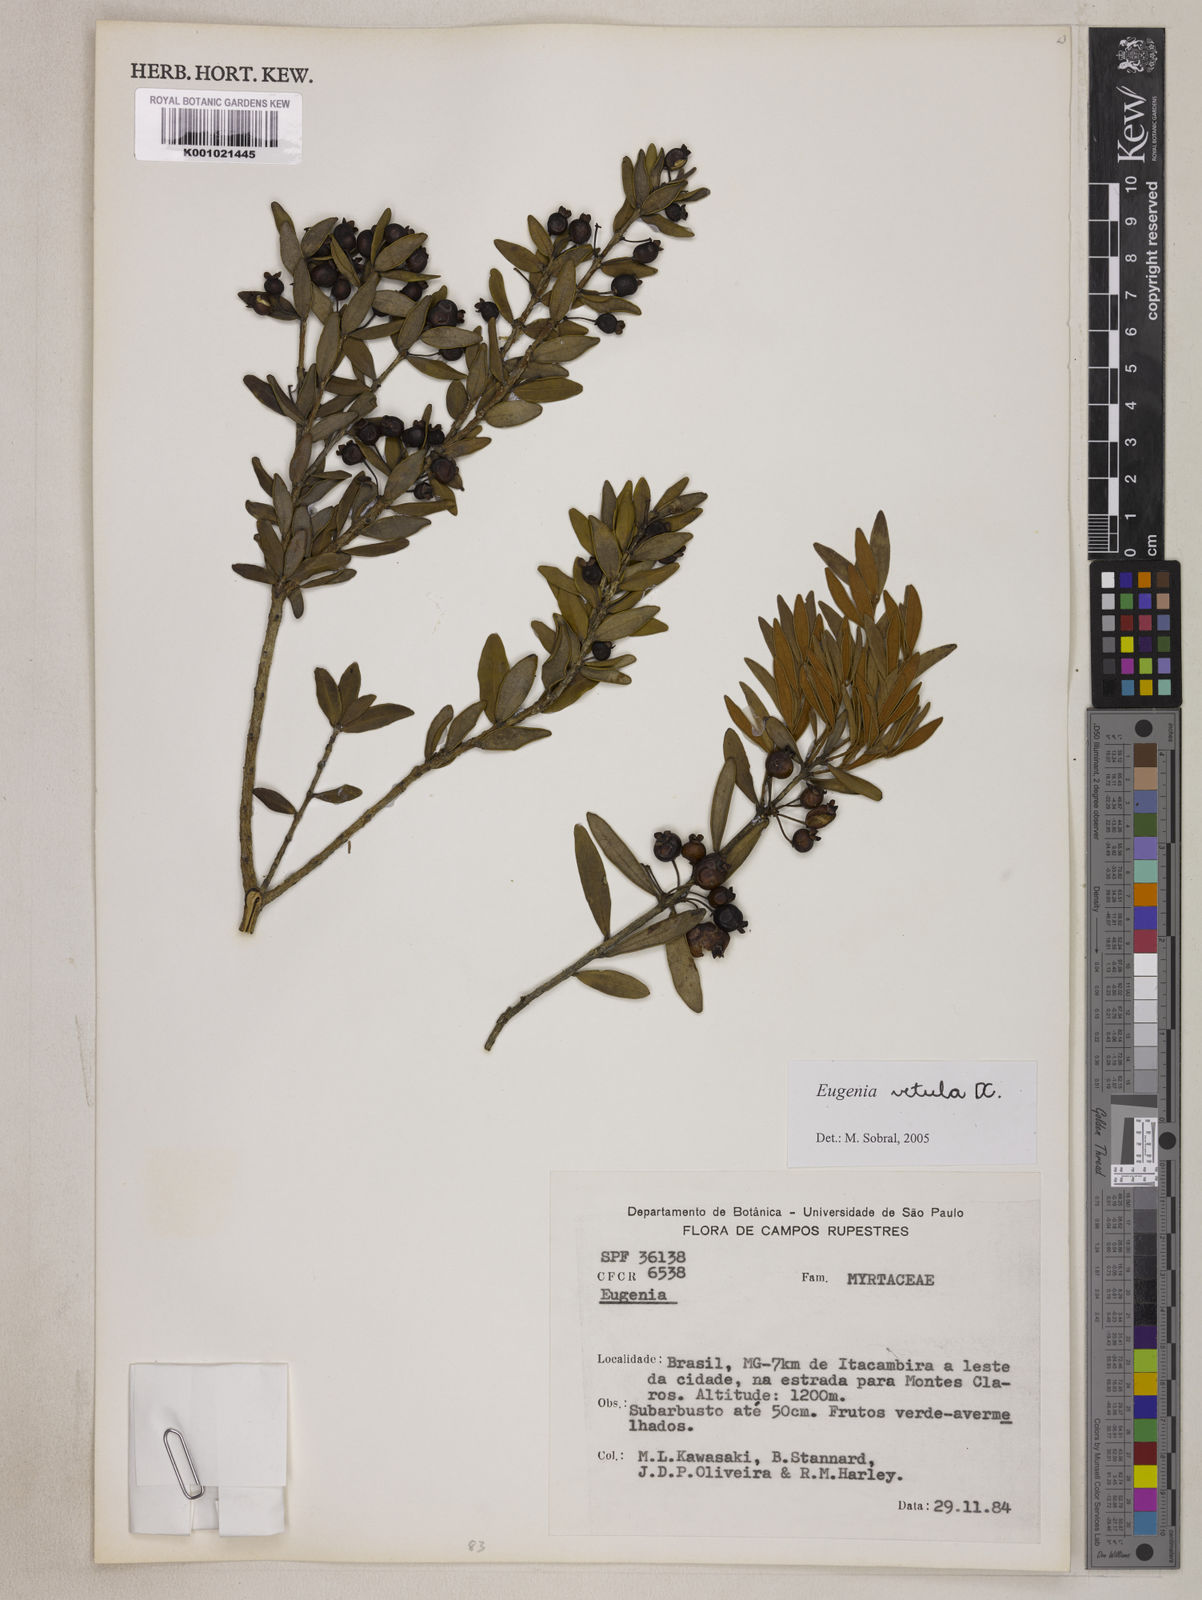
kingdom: Plantae
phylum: Tracheophyta
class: Magnoliopsida
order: Myrtales
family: Myrtaceae
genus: Eugenia
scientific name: Eugenia vetula
